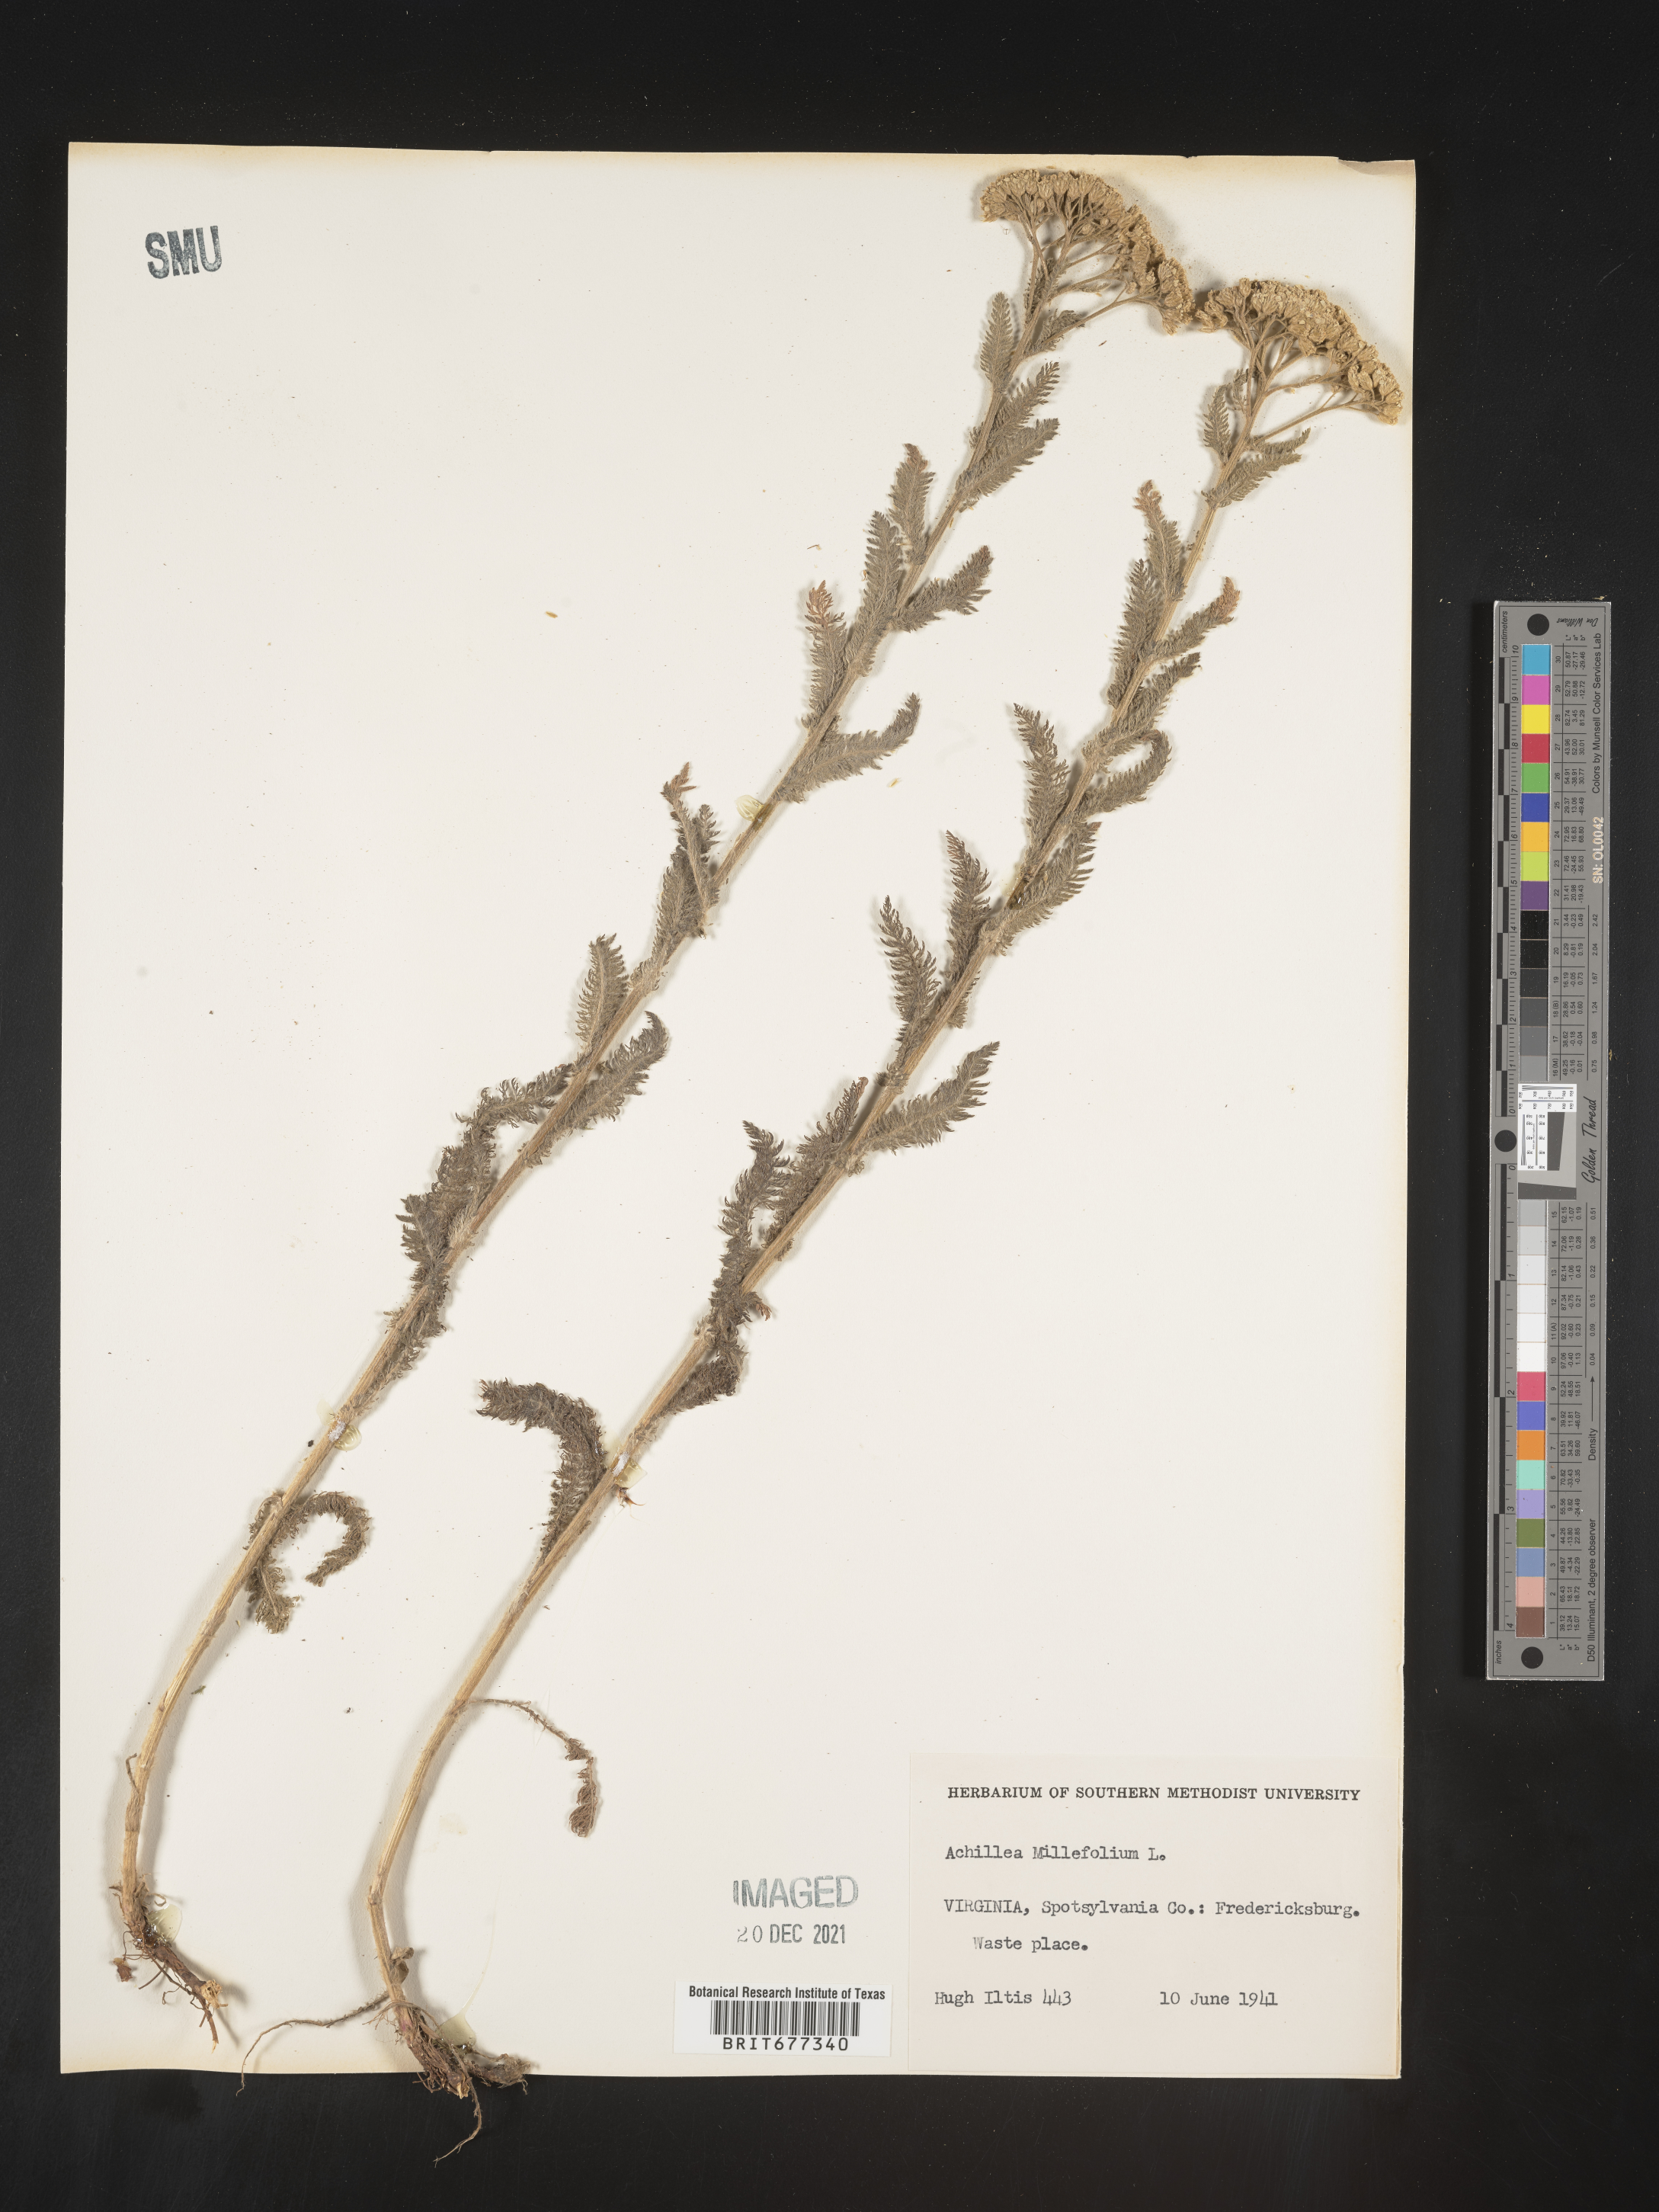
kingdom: Plantae
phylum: Tracheophyta
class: Magnoliopsida
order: Asterales
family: Asteraceae
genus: Achillea
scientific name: Achillea millefolium
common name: Yarrow
